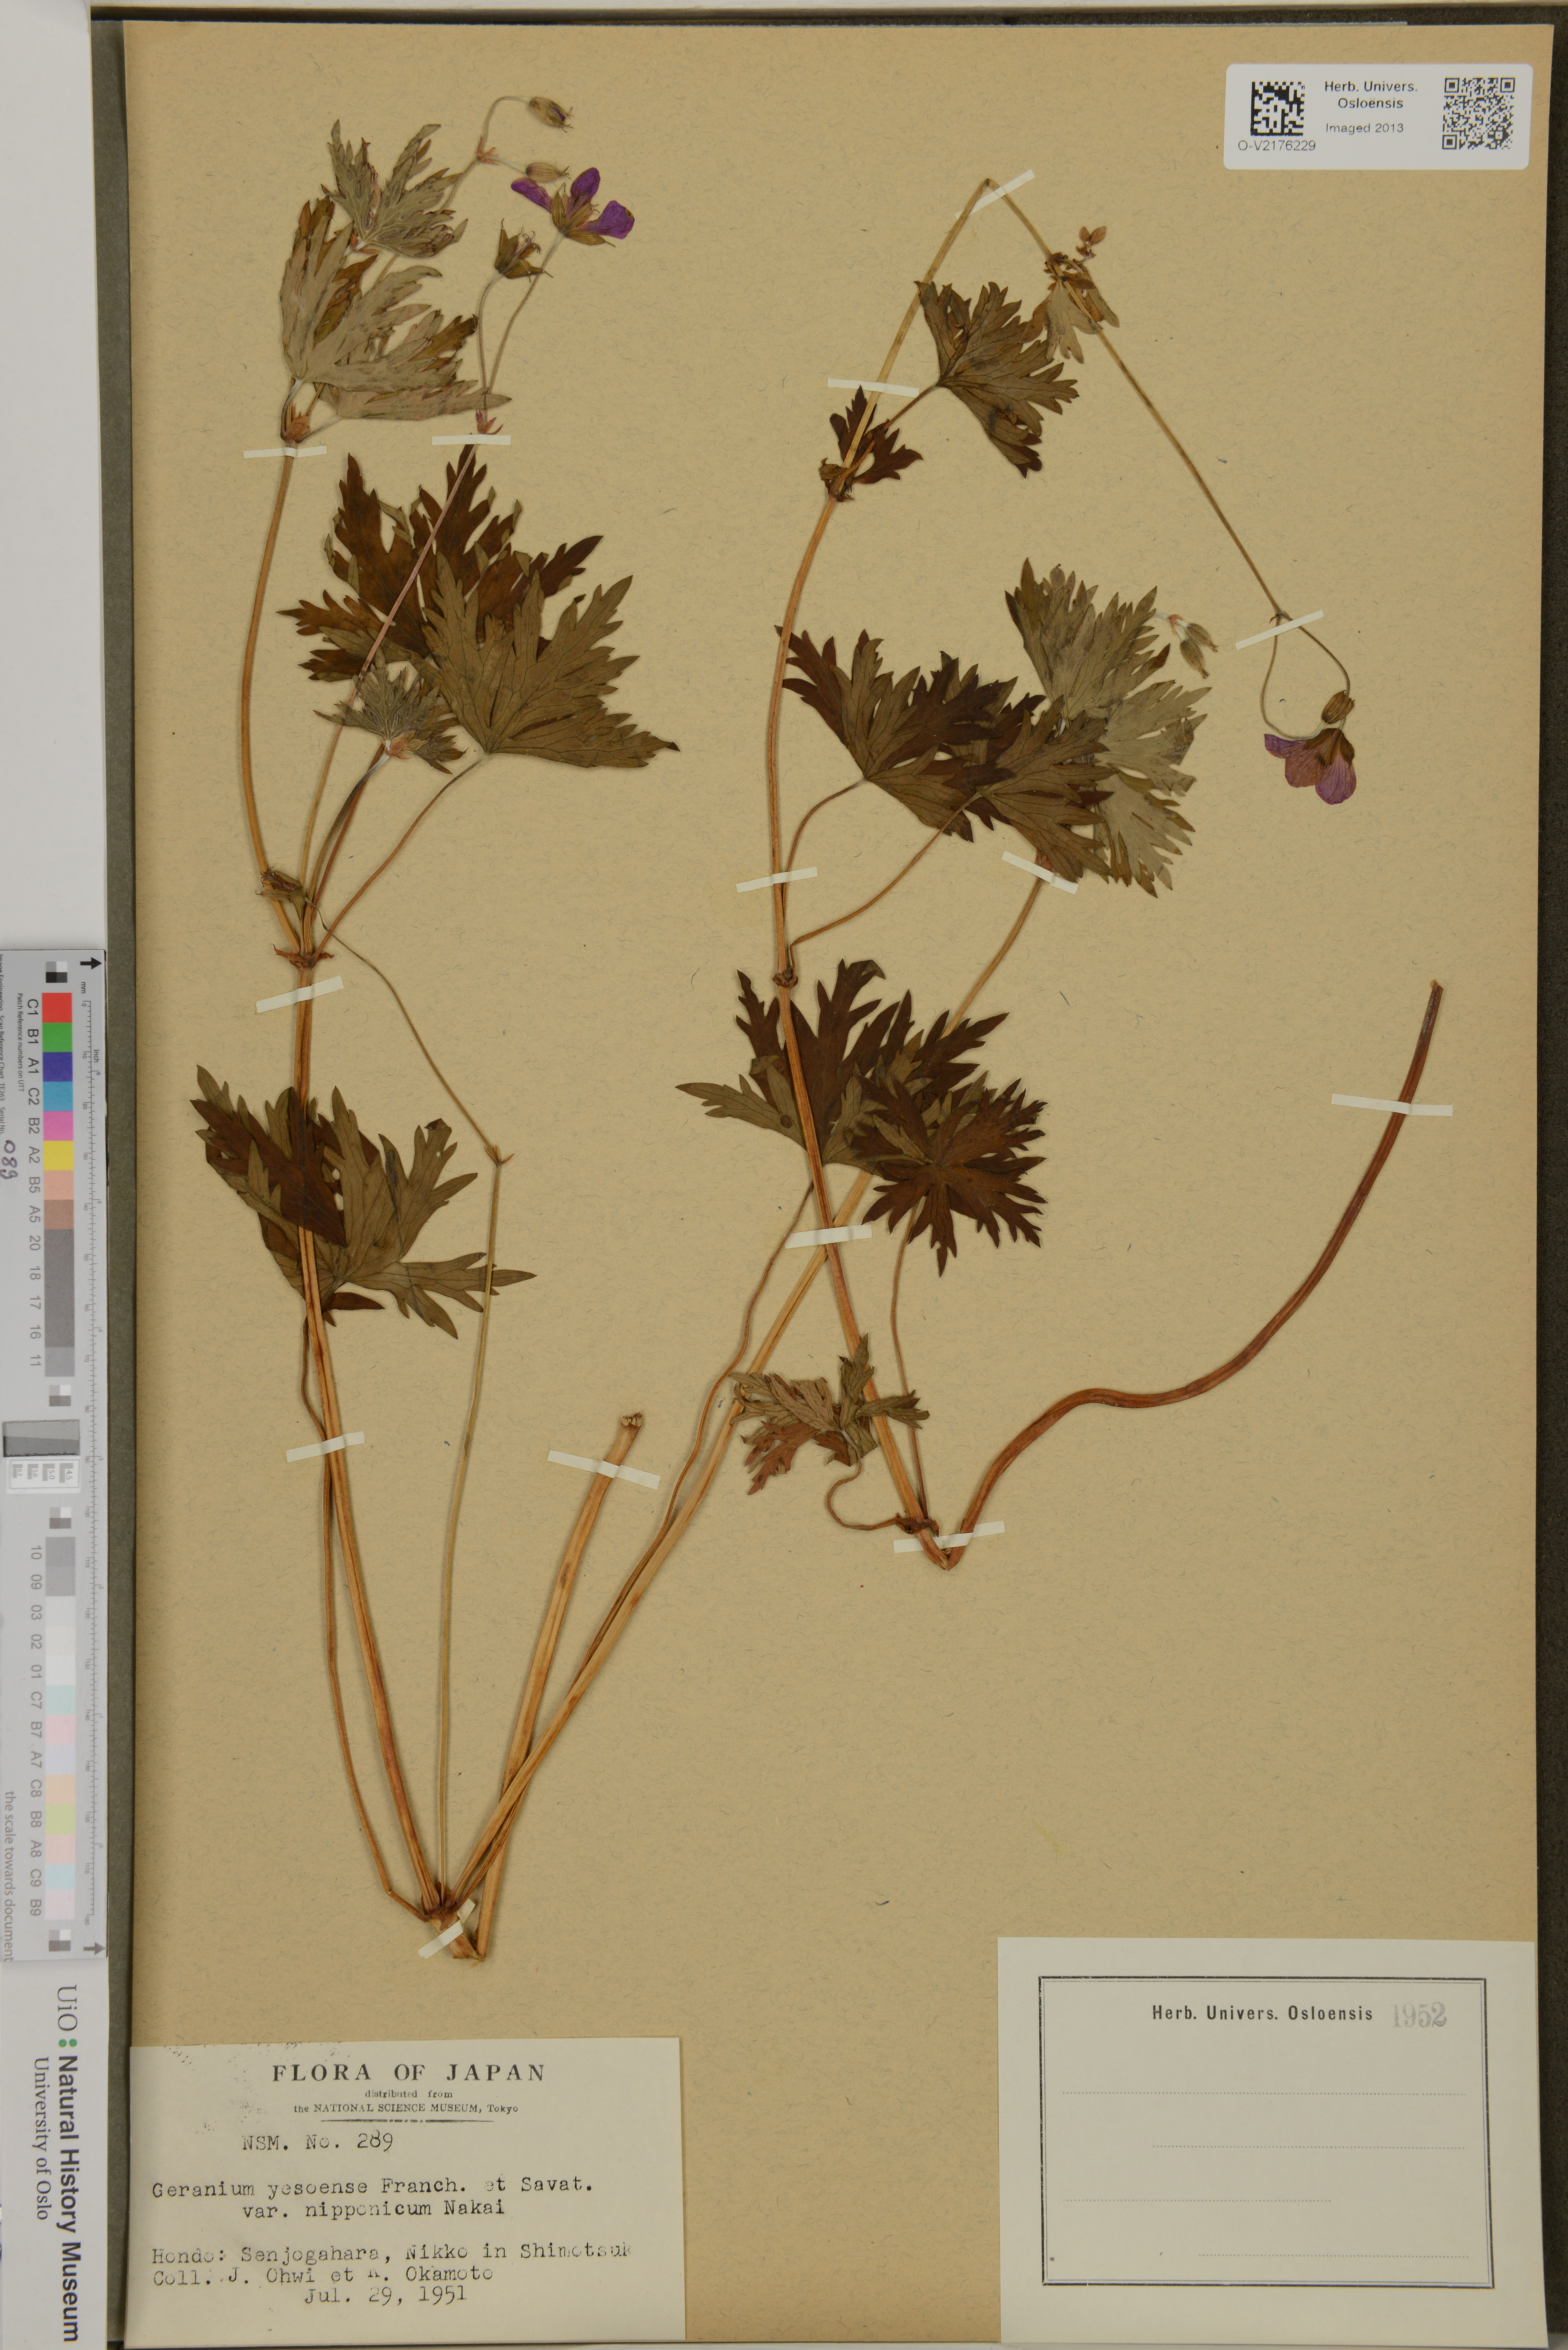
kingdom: Plantae
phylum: Tracheophyta
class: Magnoliopsida
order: Geraniales
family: Geraniaceae
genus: Geranium
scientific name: Geranium yesoense
